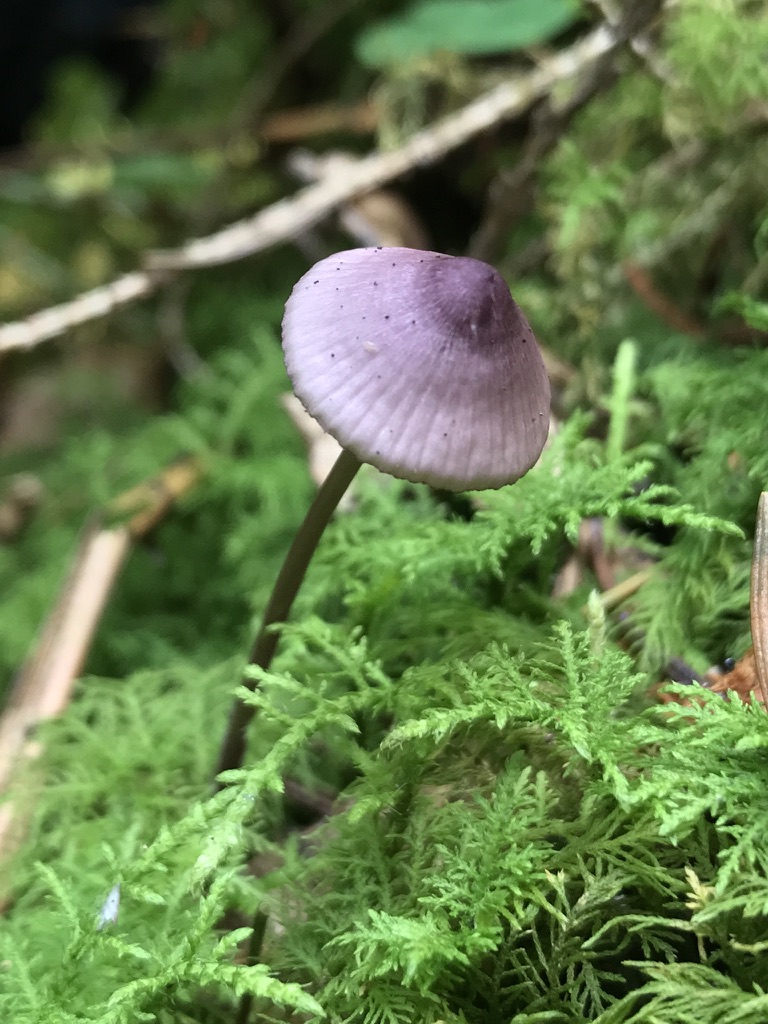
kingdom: Fungi
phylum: Basidiomycota
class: Agaricomycetes
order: Agaricales
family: Mycenaceae
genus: Mycena
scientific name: Mycena purpureofusca
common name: purpur-huesvamp
